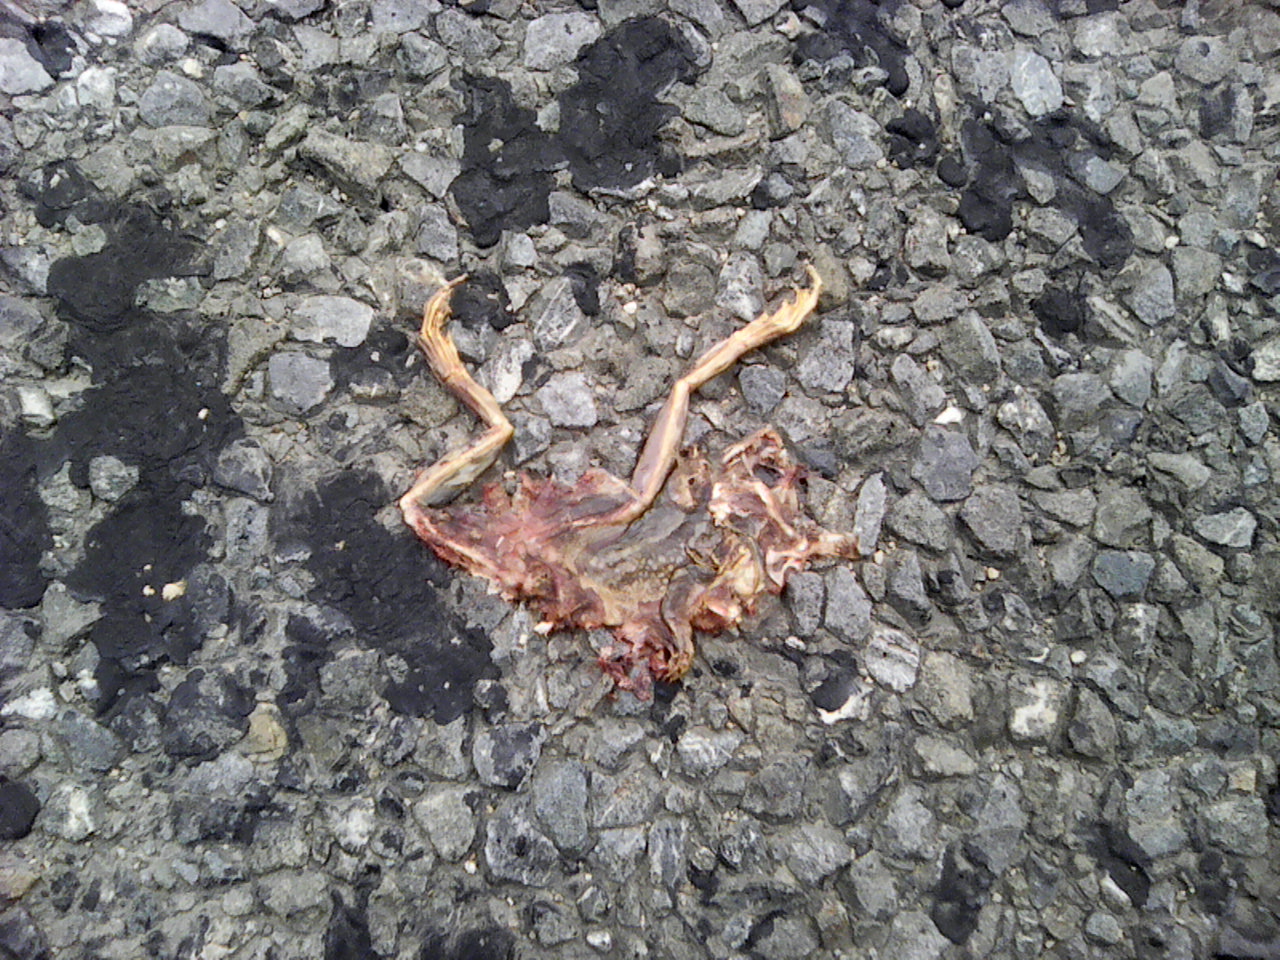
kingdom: Animalia
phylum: Chordata
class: Amphibia
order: Anura
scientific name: Anura
